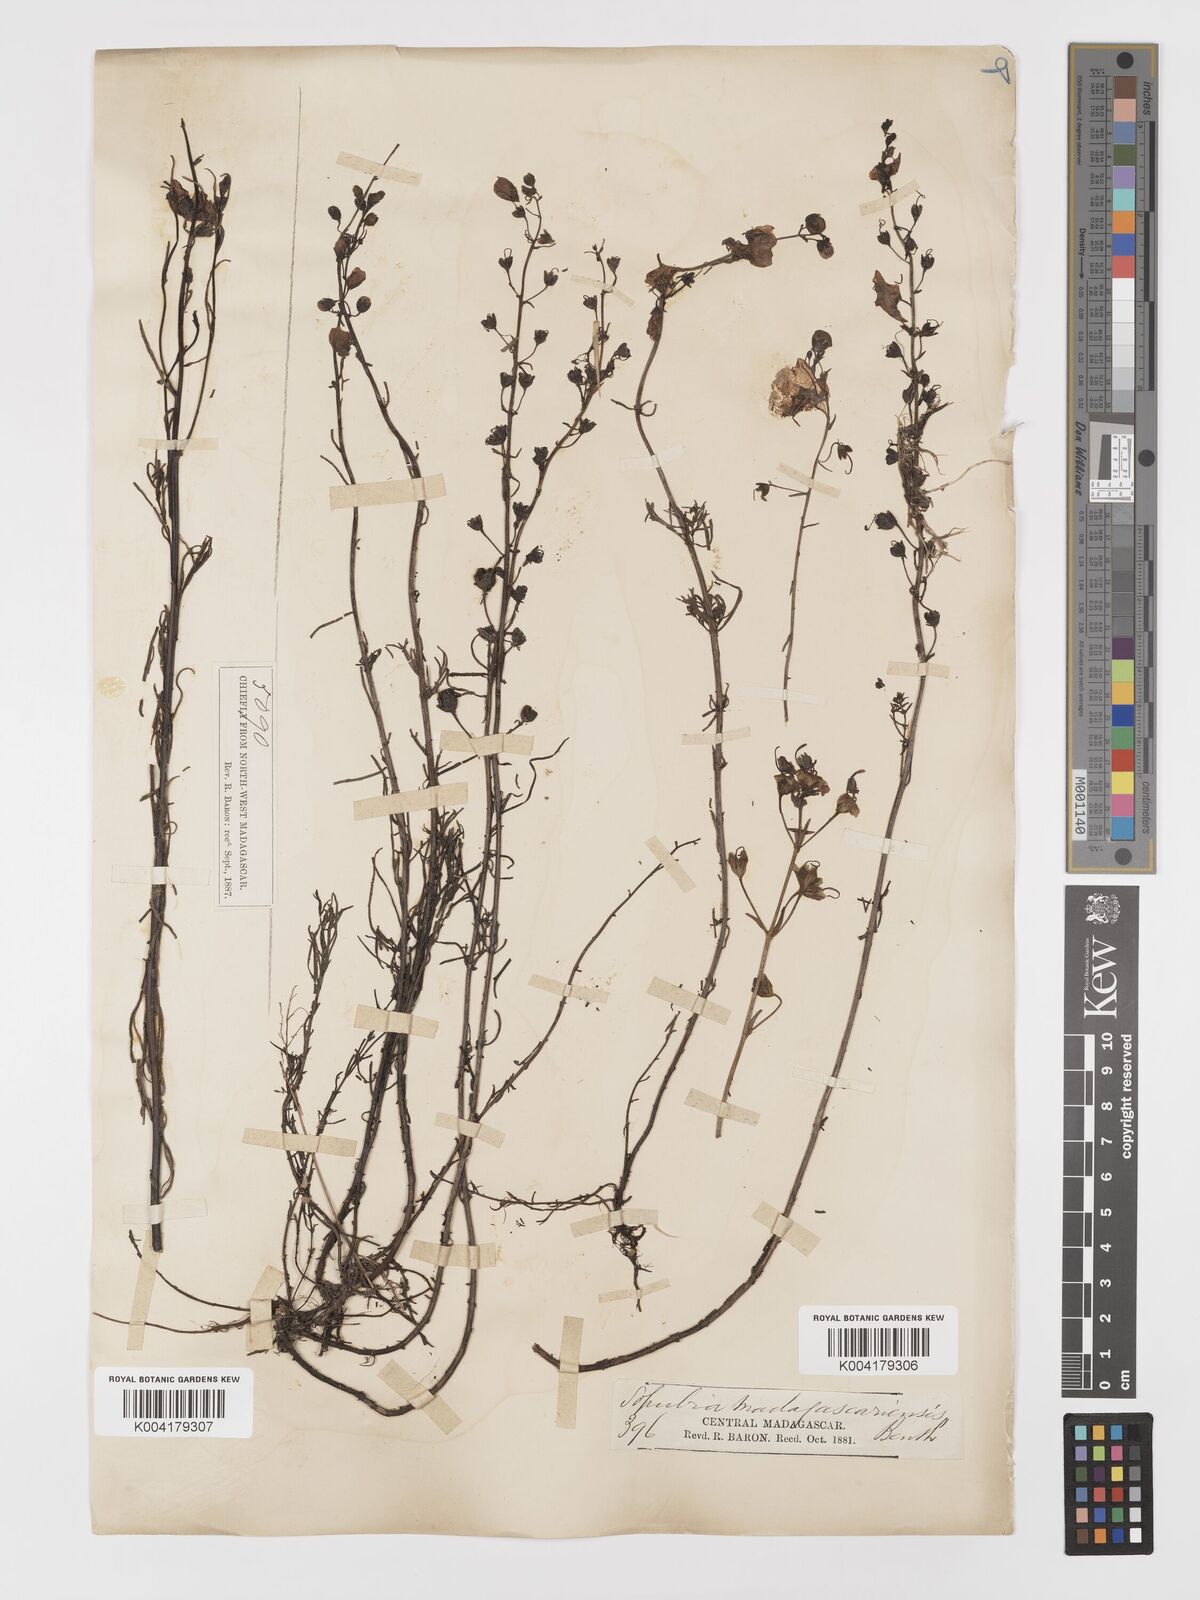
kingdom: Plantae
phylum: Tracheophyta
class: Magnoliopsida
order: Lamiales
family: Orobanchaceae
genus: Sopubia
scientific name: Sopubia trifida
